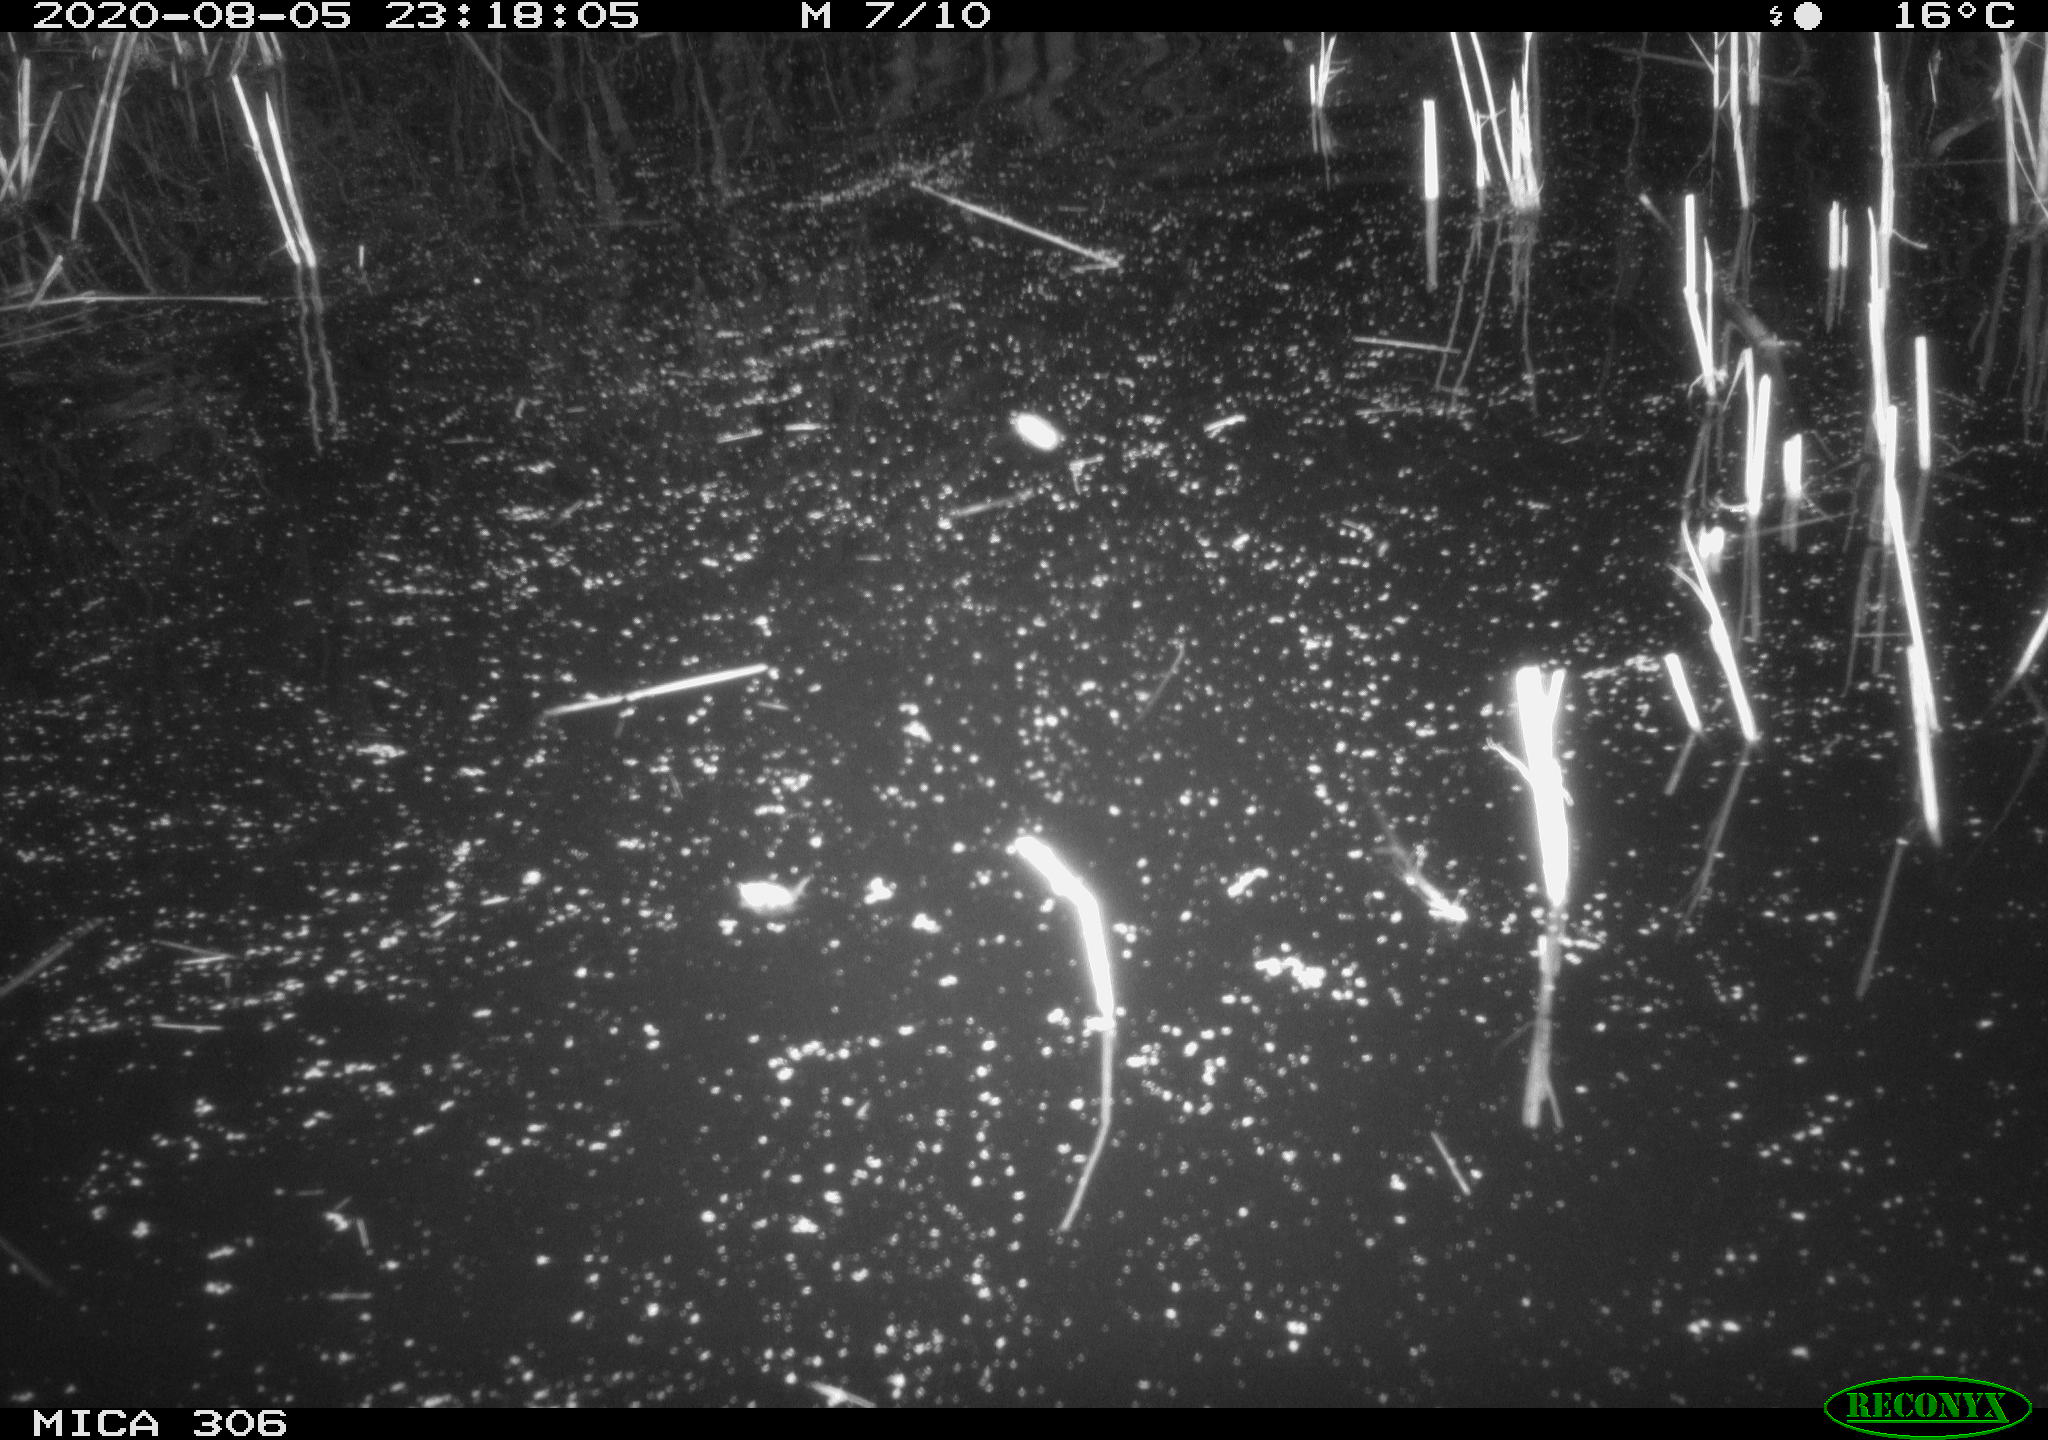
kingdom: Animalia
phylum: Chordata
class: Mammalia
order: Rodentia
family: Cricetidae
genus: Ondatra
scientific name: Ondatra zibethicus
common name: Muskrat
